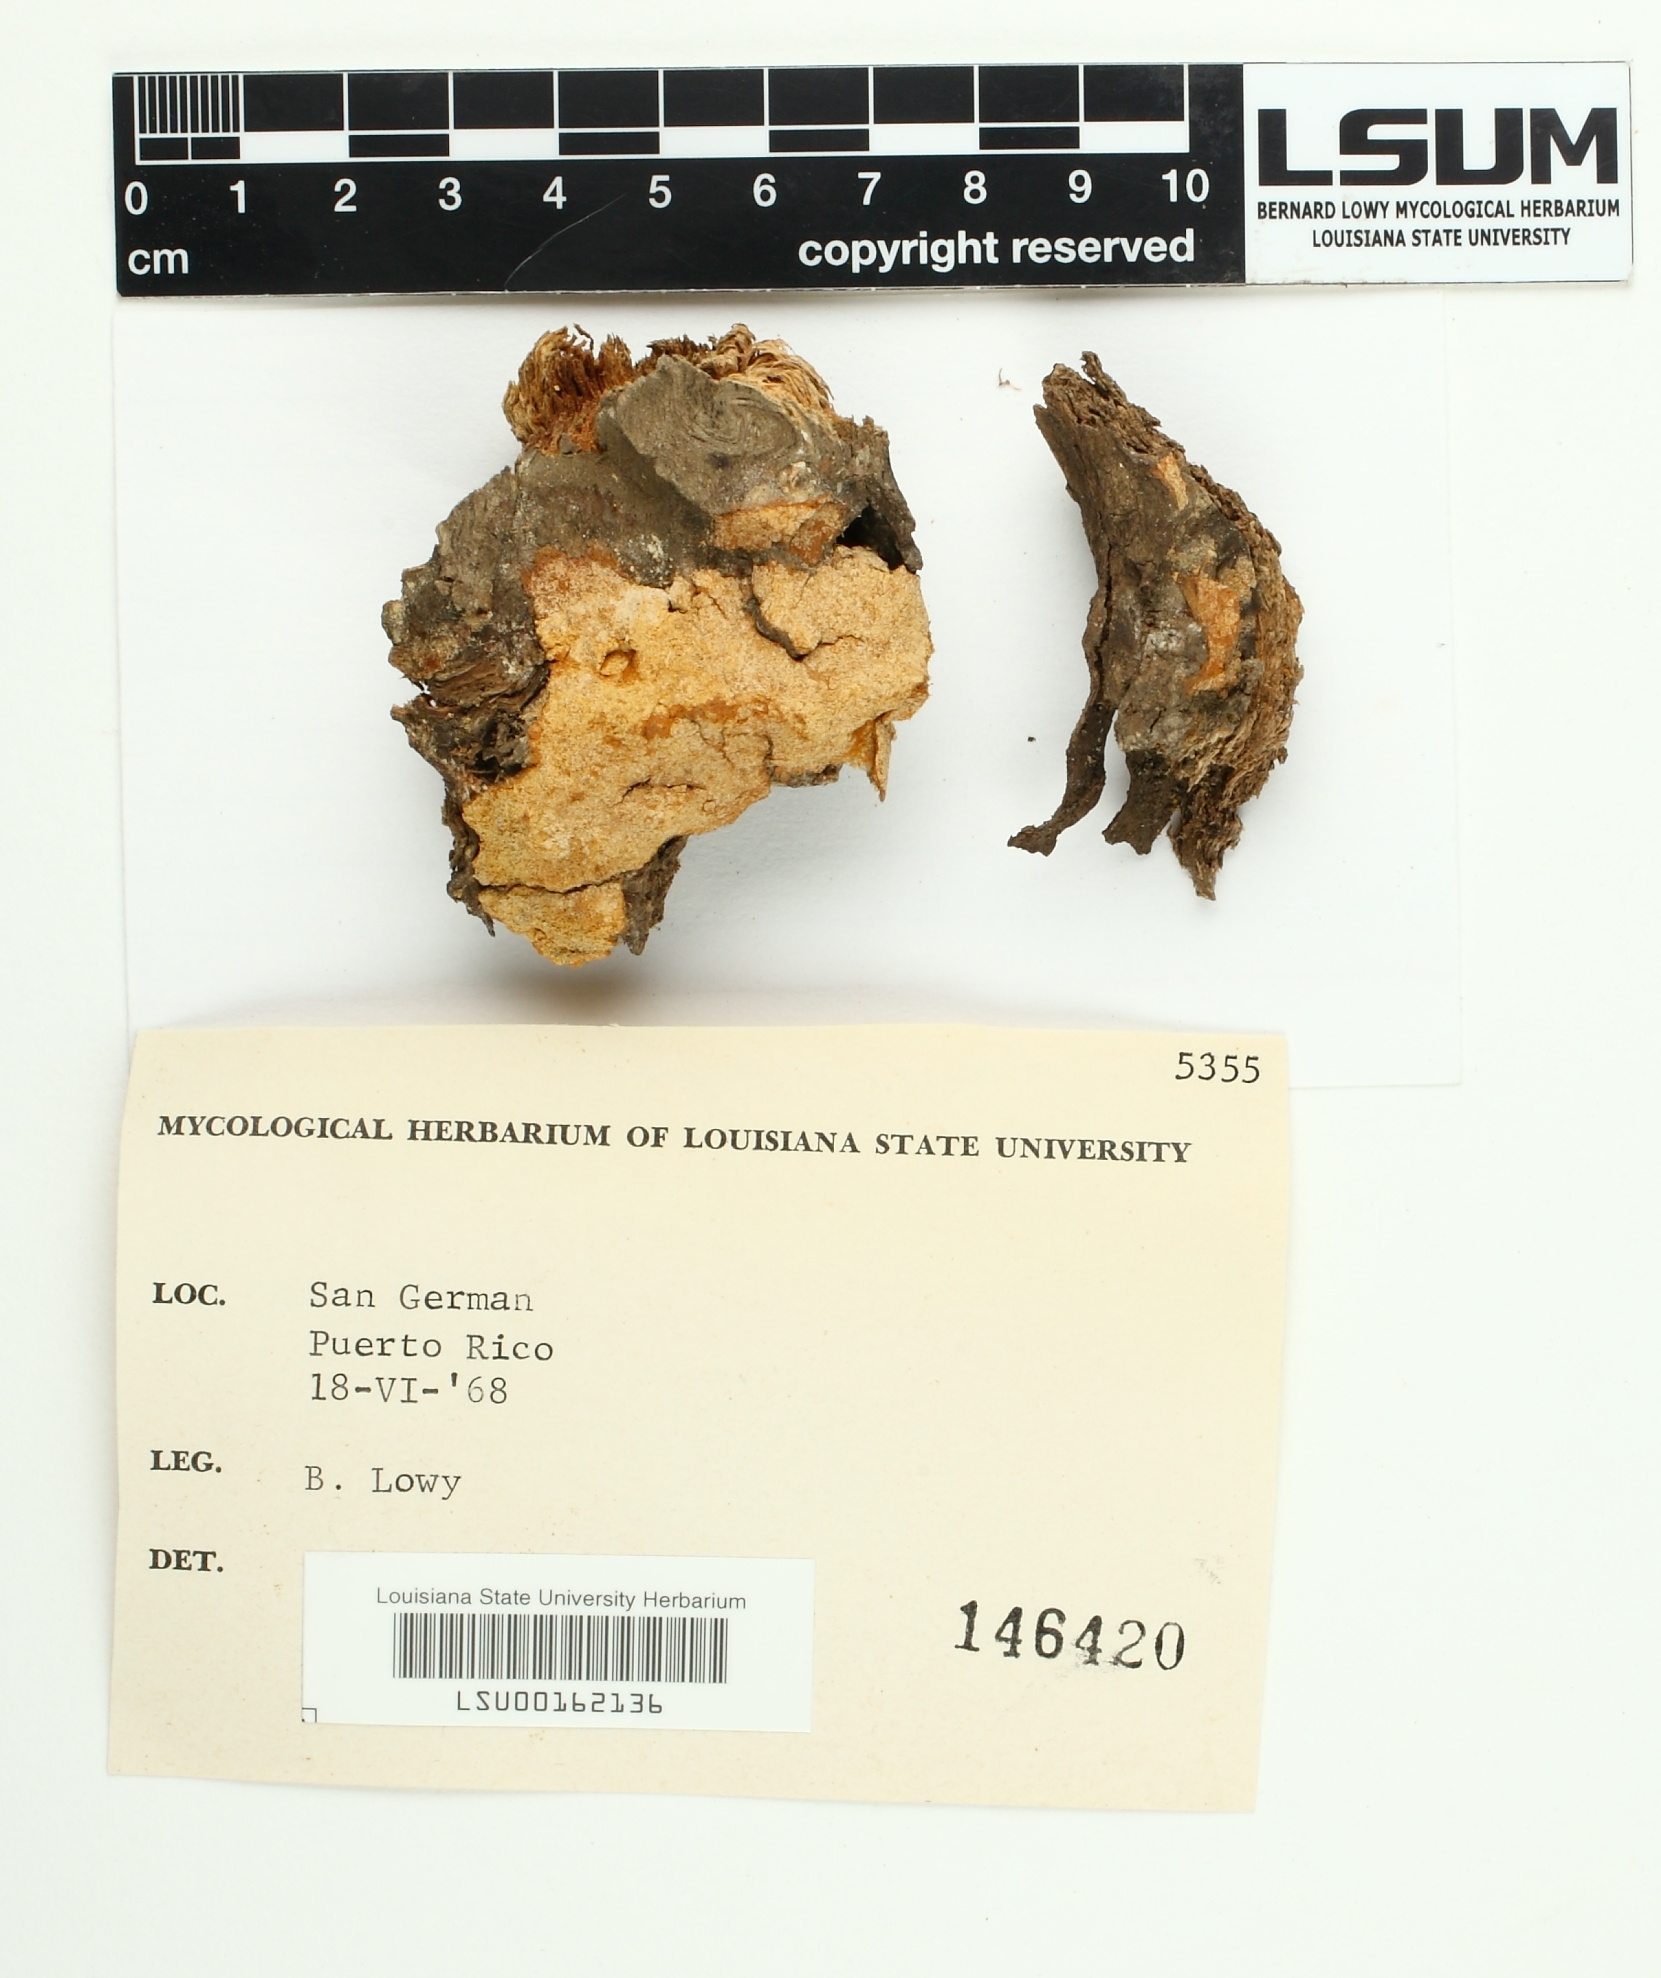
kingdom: Fungi
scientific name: Fungi
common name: Fungi
